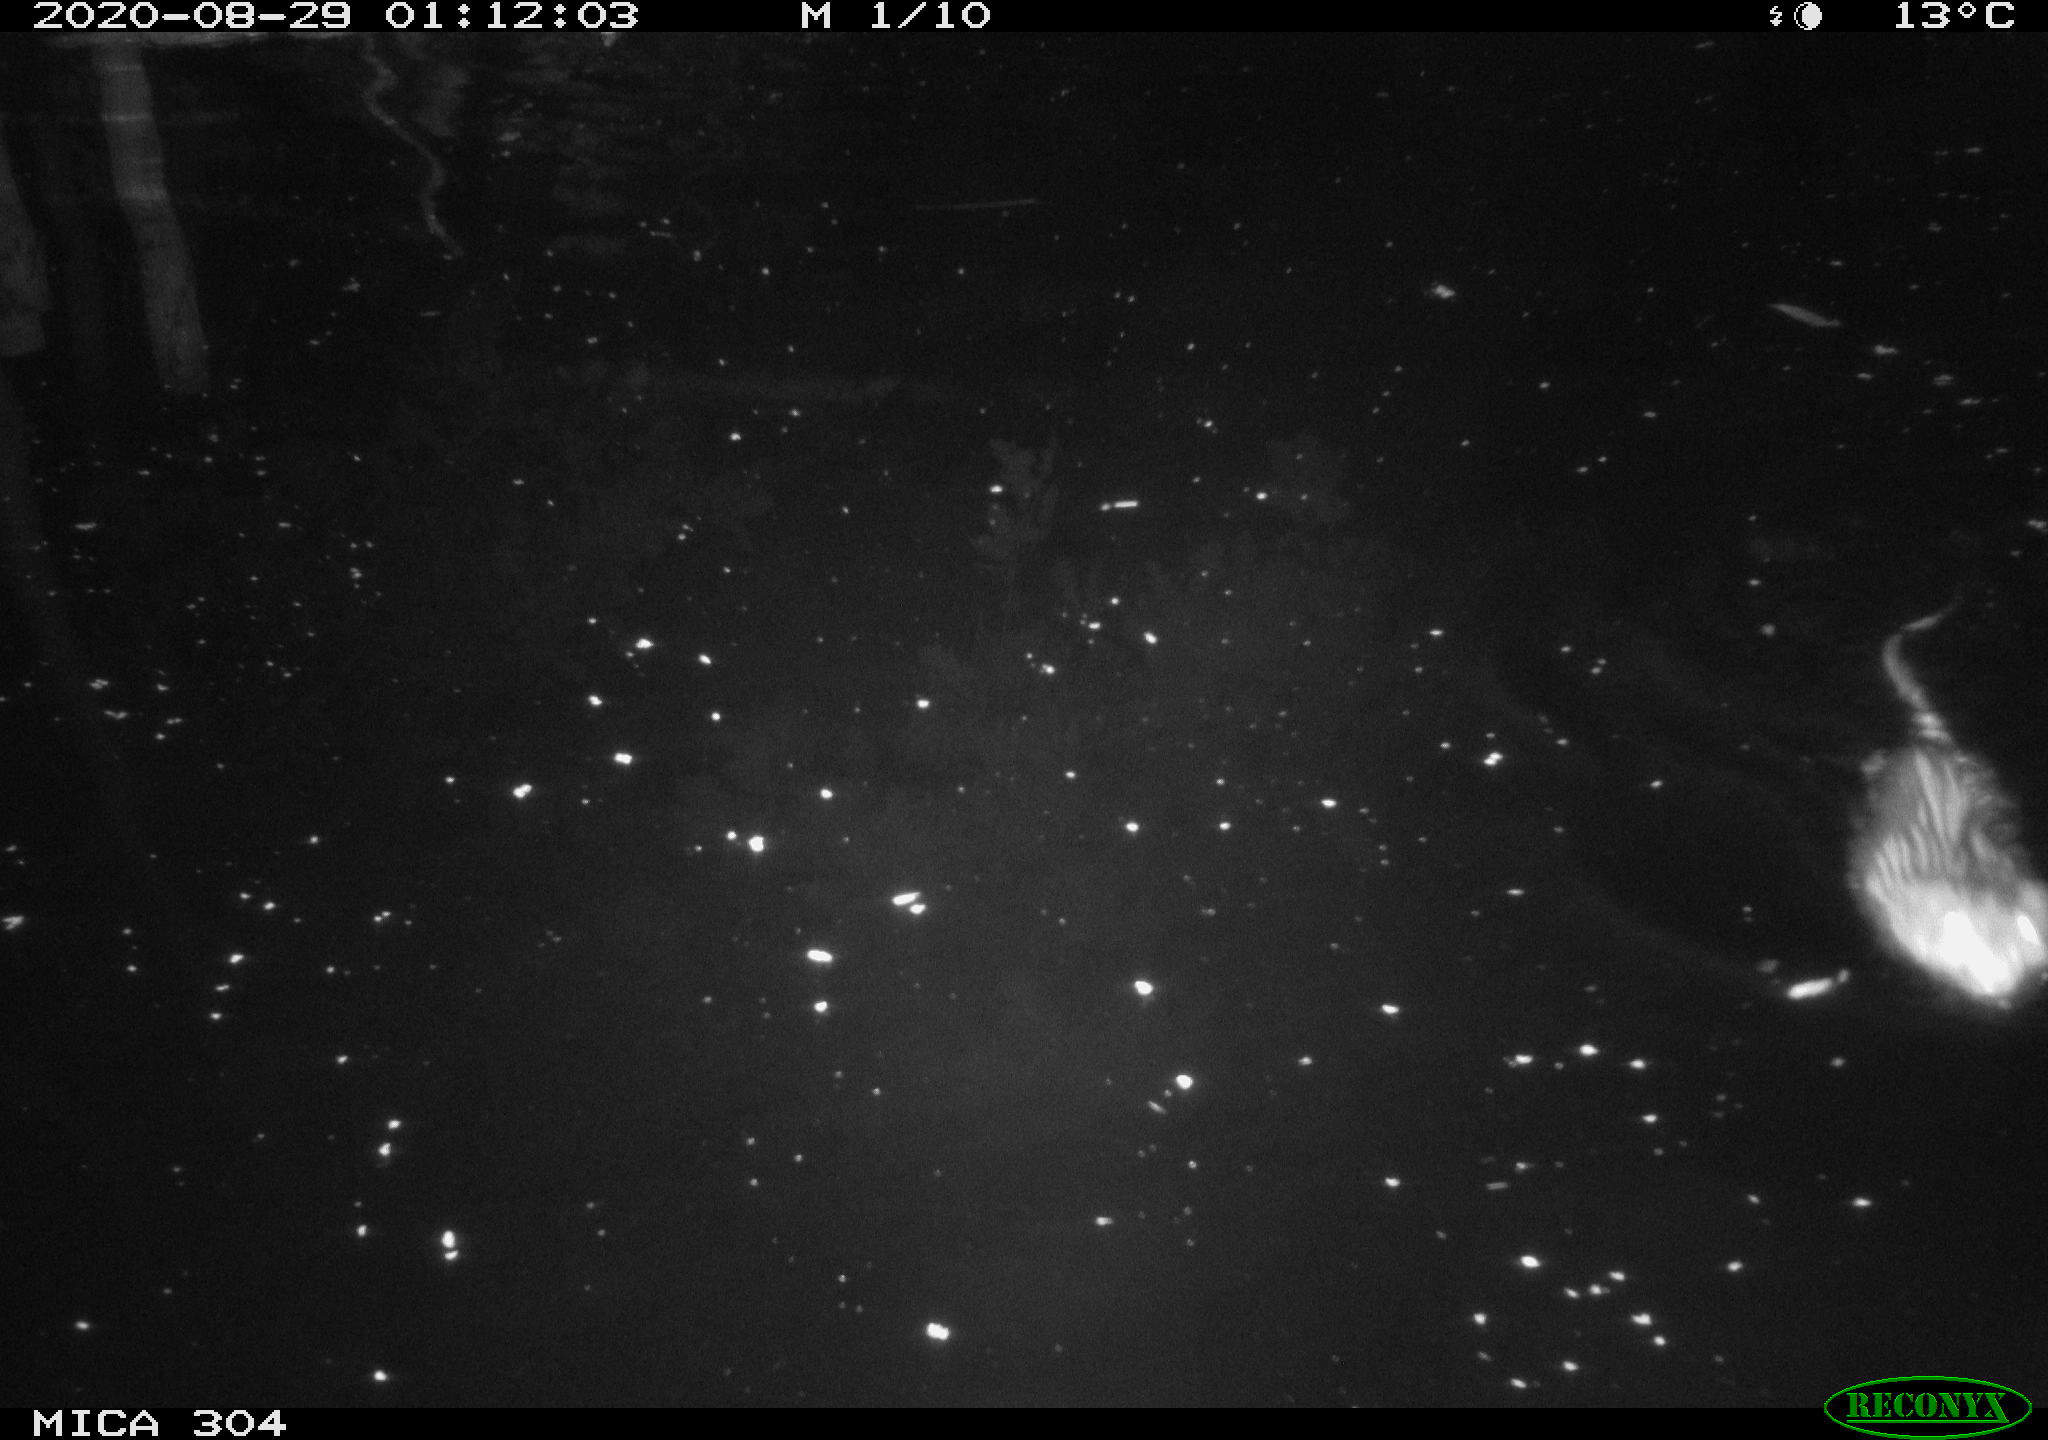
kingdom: Animalia
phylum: Chordata
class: Mammalia
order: Rodentia
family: Cricetidae
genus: Ondatra
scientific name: Ondatra zibethicus
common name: Muskrat
